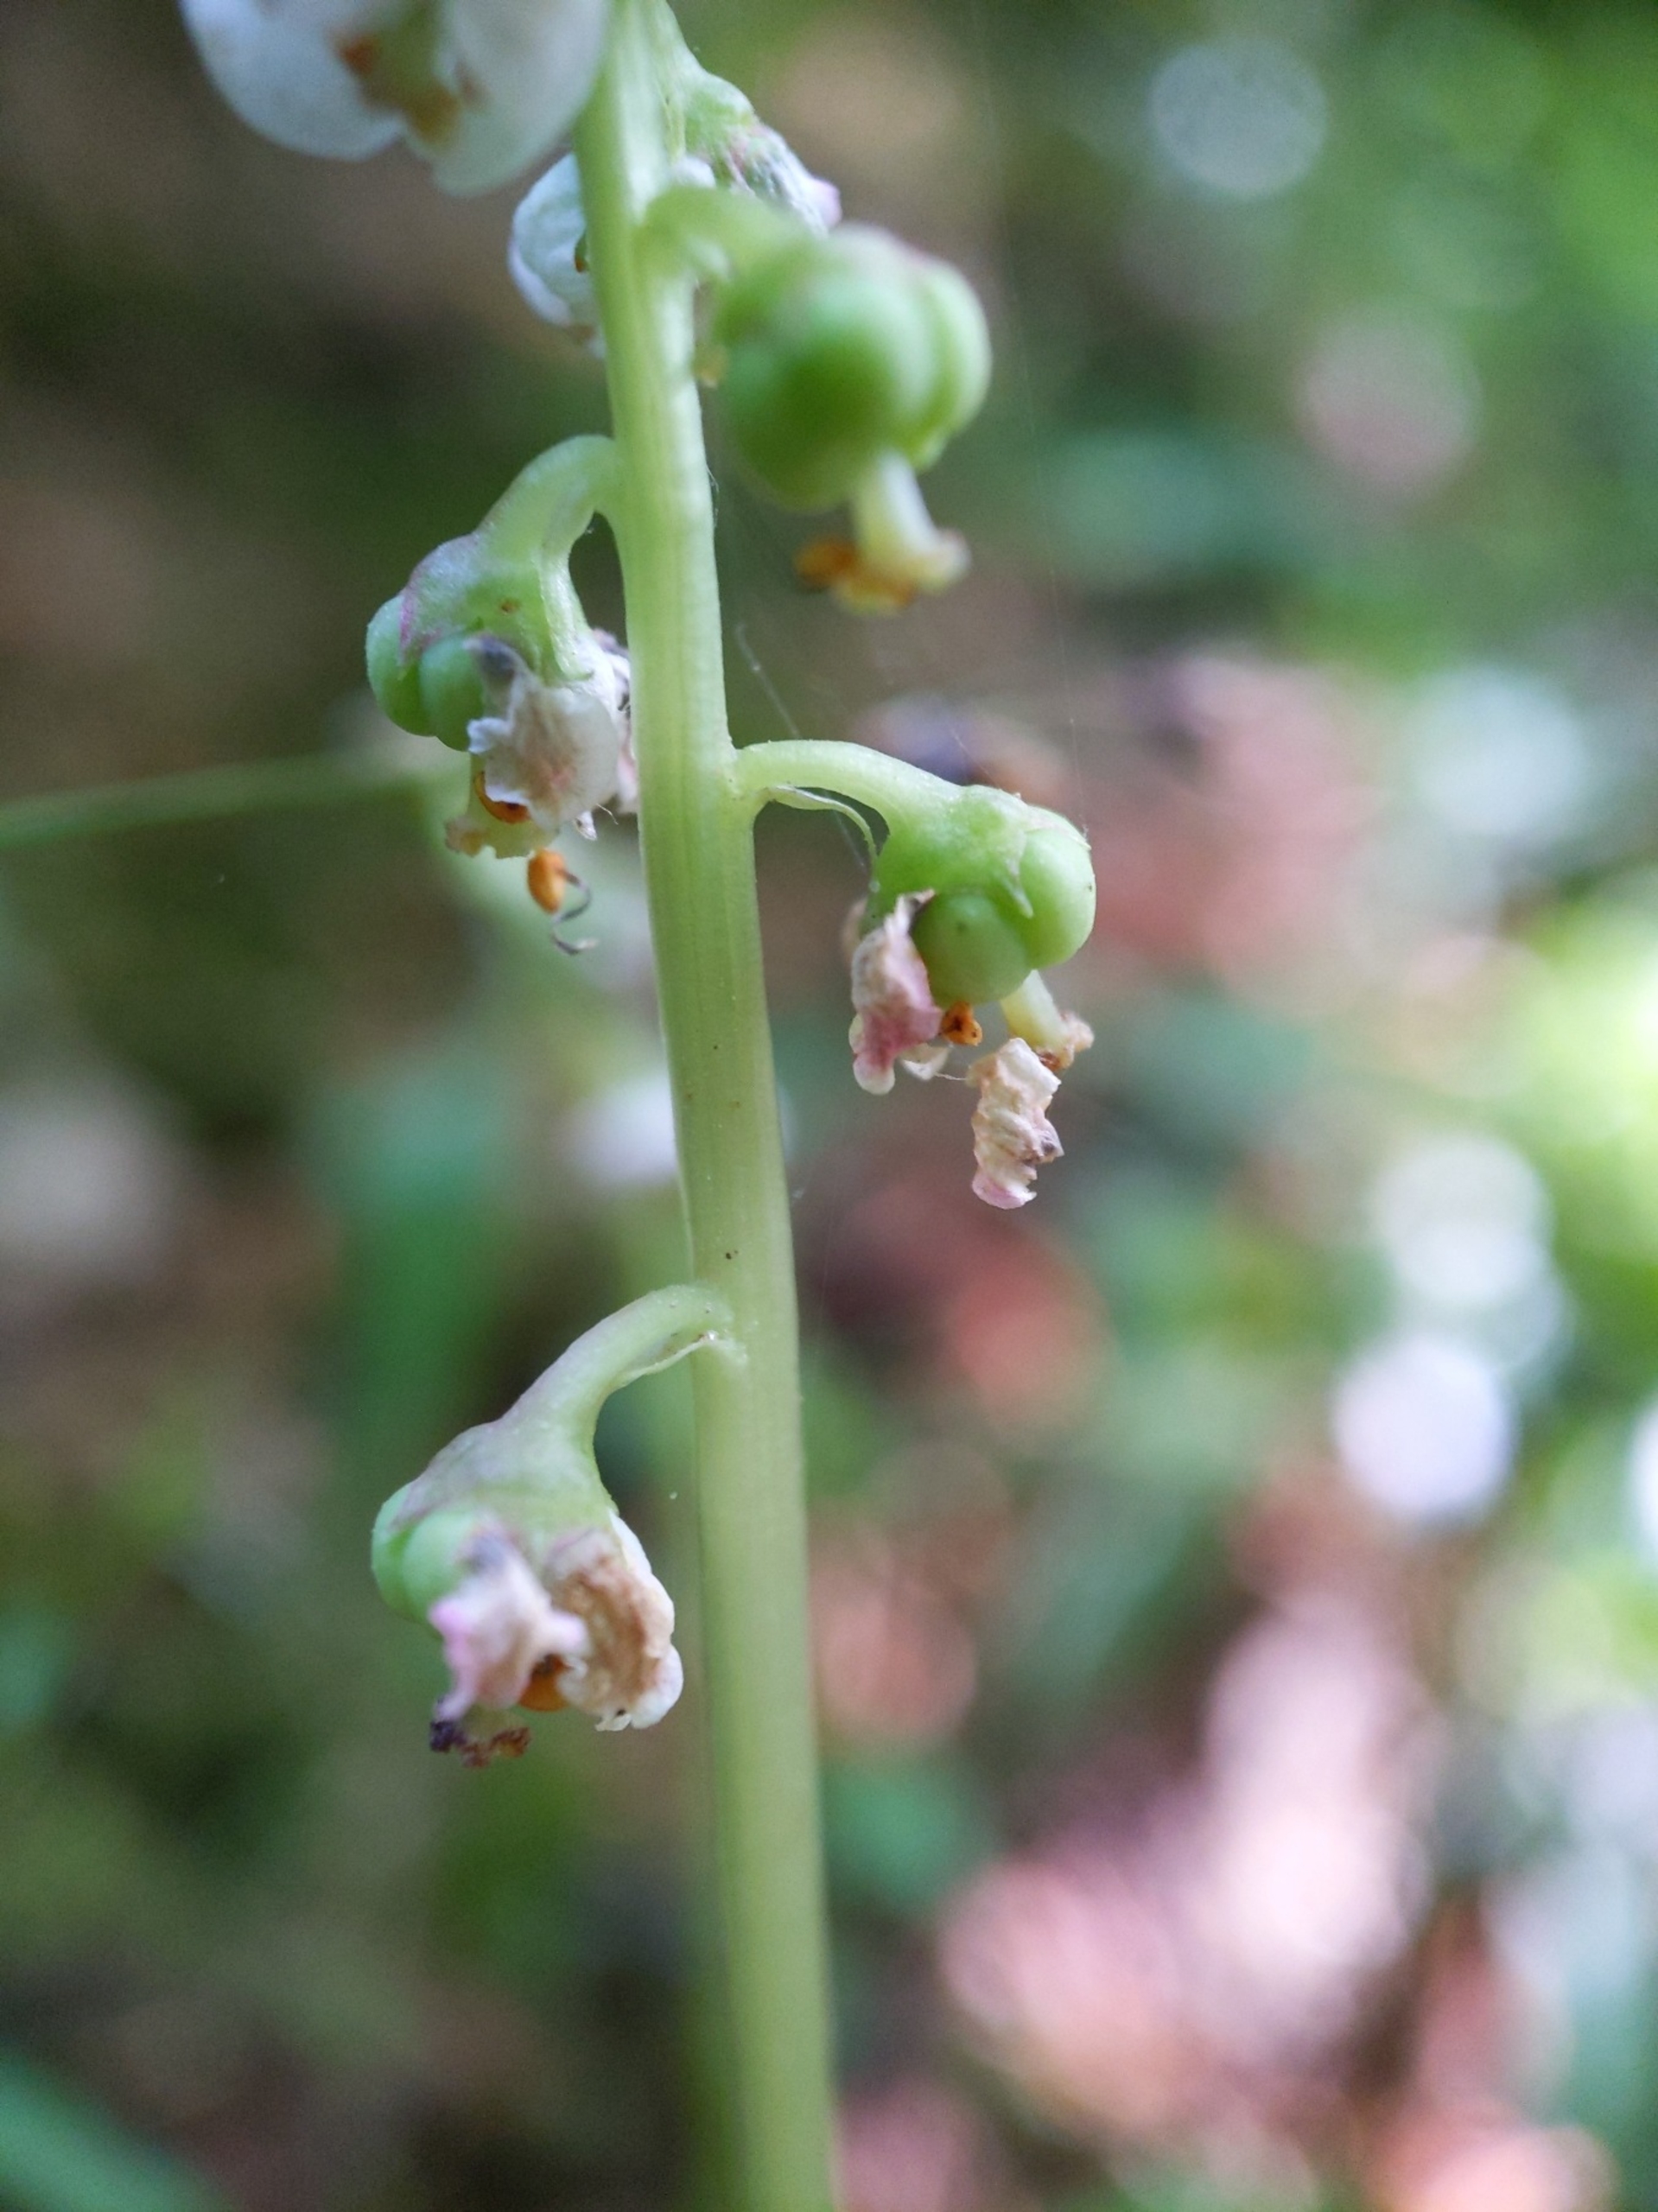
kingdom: Plantae
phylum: Tracheophyta
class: Magnoliopsida
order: Ericales
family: Ericaceae
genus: Pyrola
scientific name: Pyrola minor
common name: Liden vintergrøn
